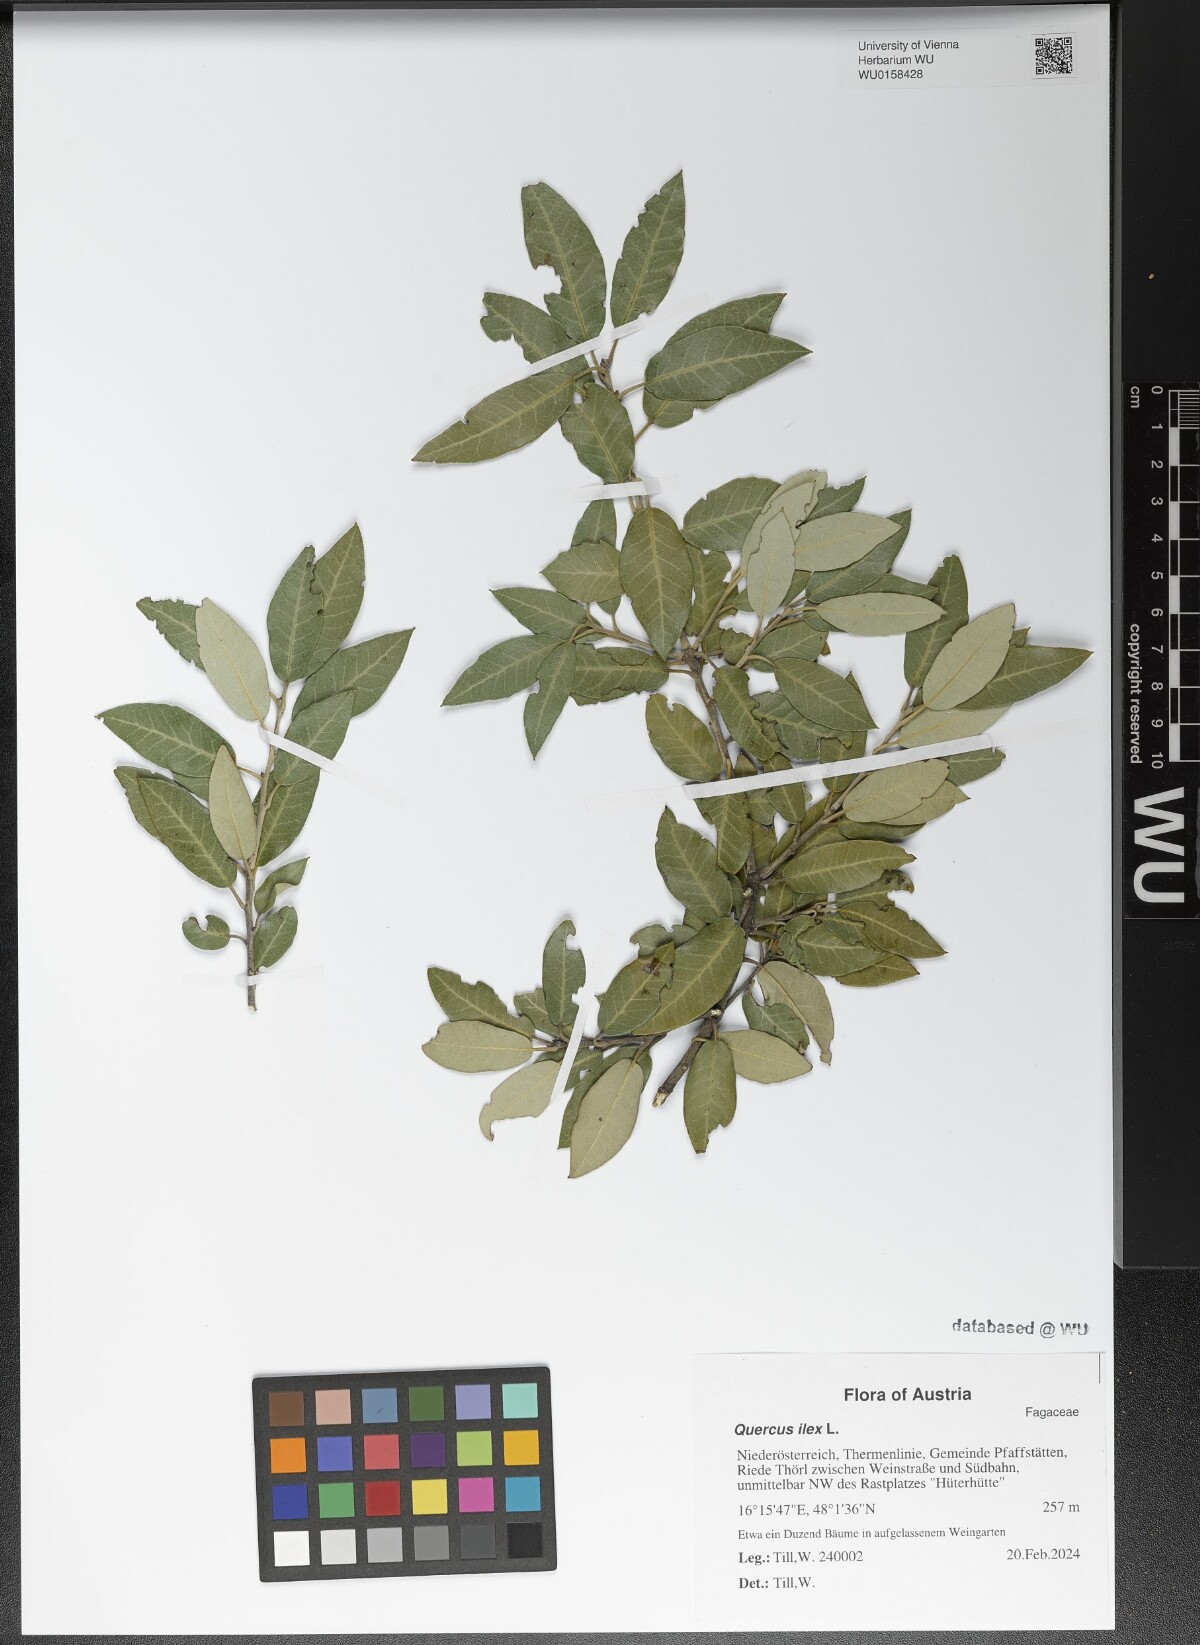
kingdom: Plantae
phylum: Tracheophyta
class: Magnoliopsida
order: Fagales
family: Fagaceae
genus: Quercus
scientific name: Quercus ilex
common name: Evergreen oak
